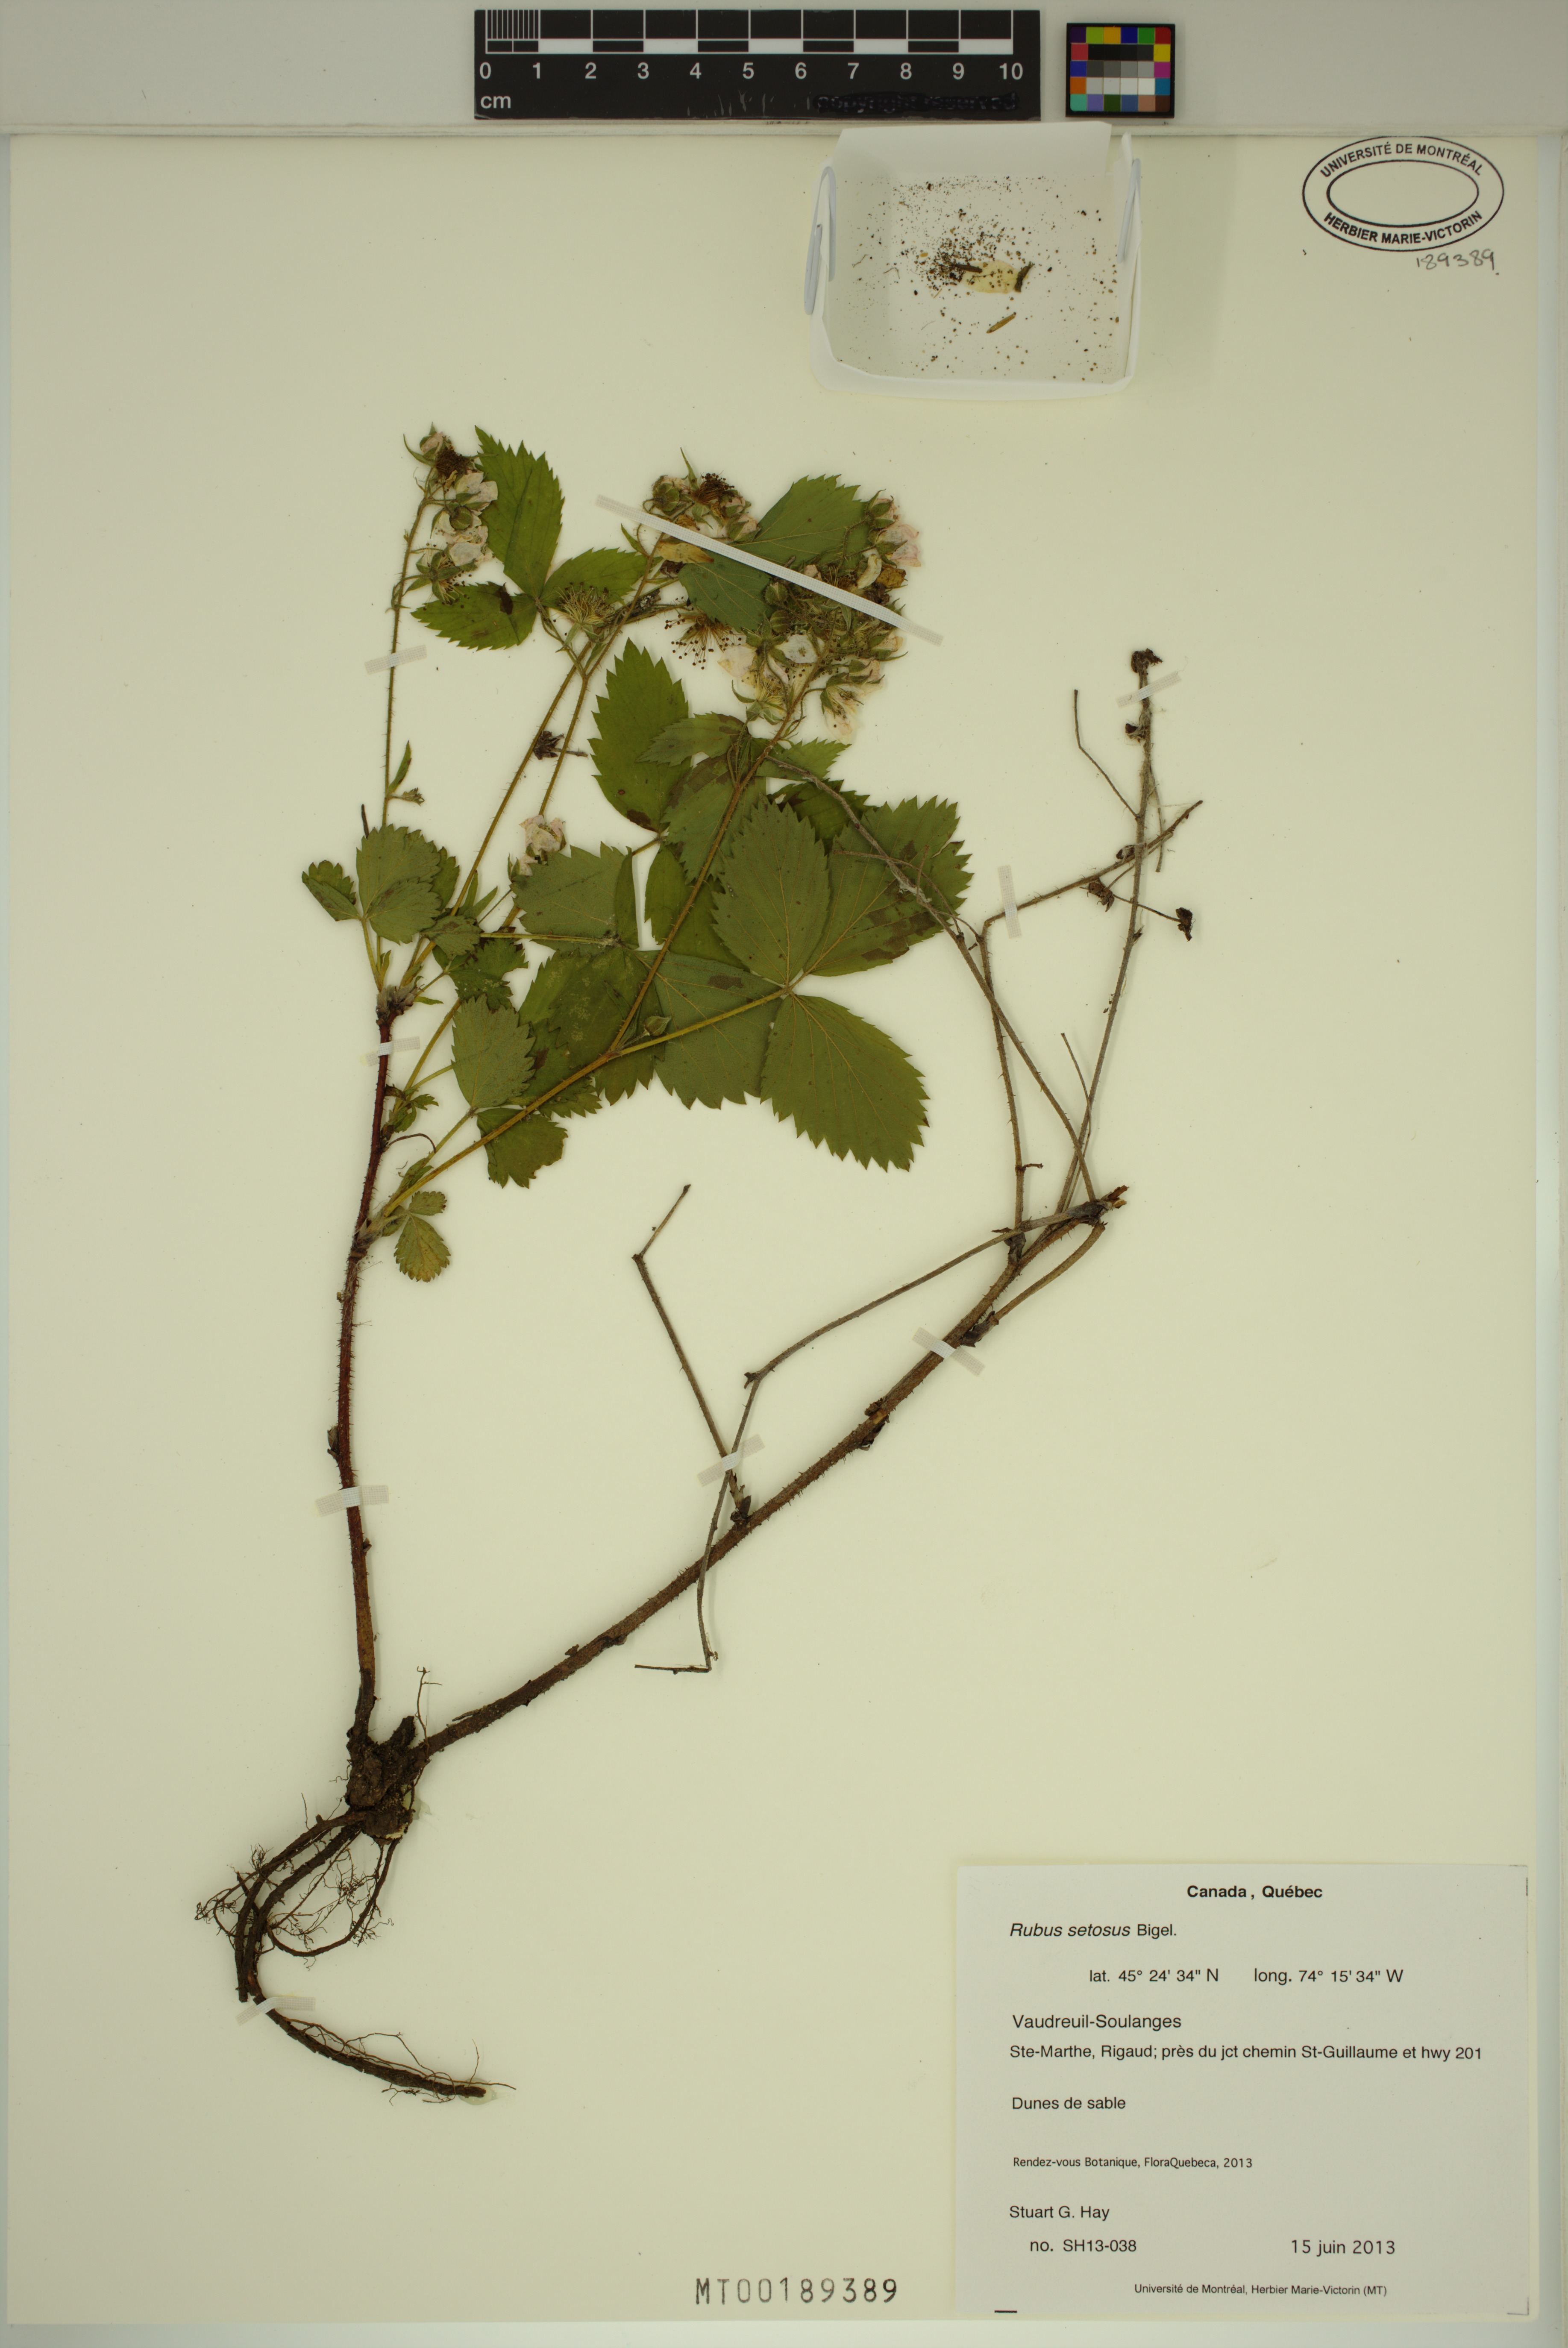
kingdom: Plantae
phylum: Tracheophyta
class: Magnoliopsida
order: Rosales
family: Rosaceae
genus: Rubus
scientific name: Rubus setosus
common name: Bristly blackberry
